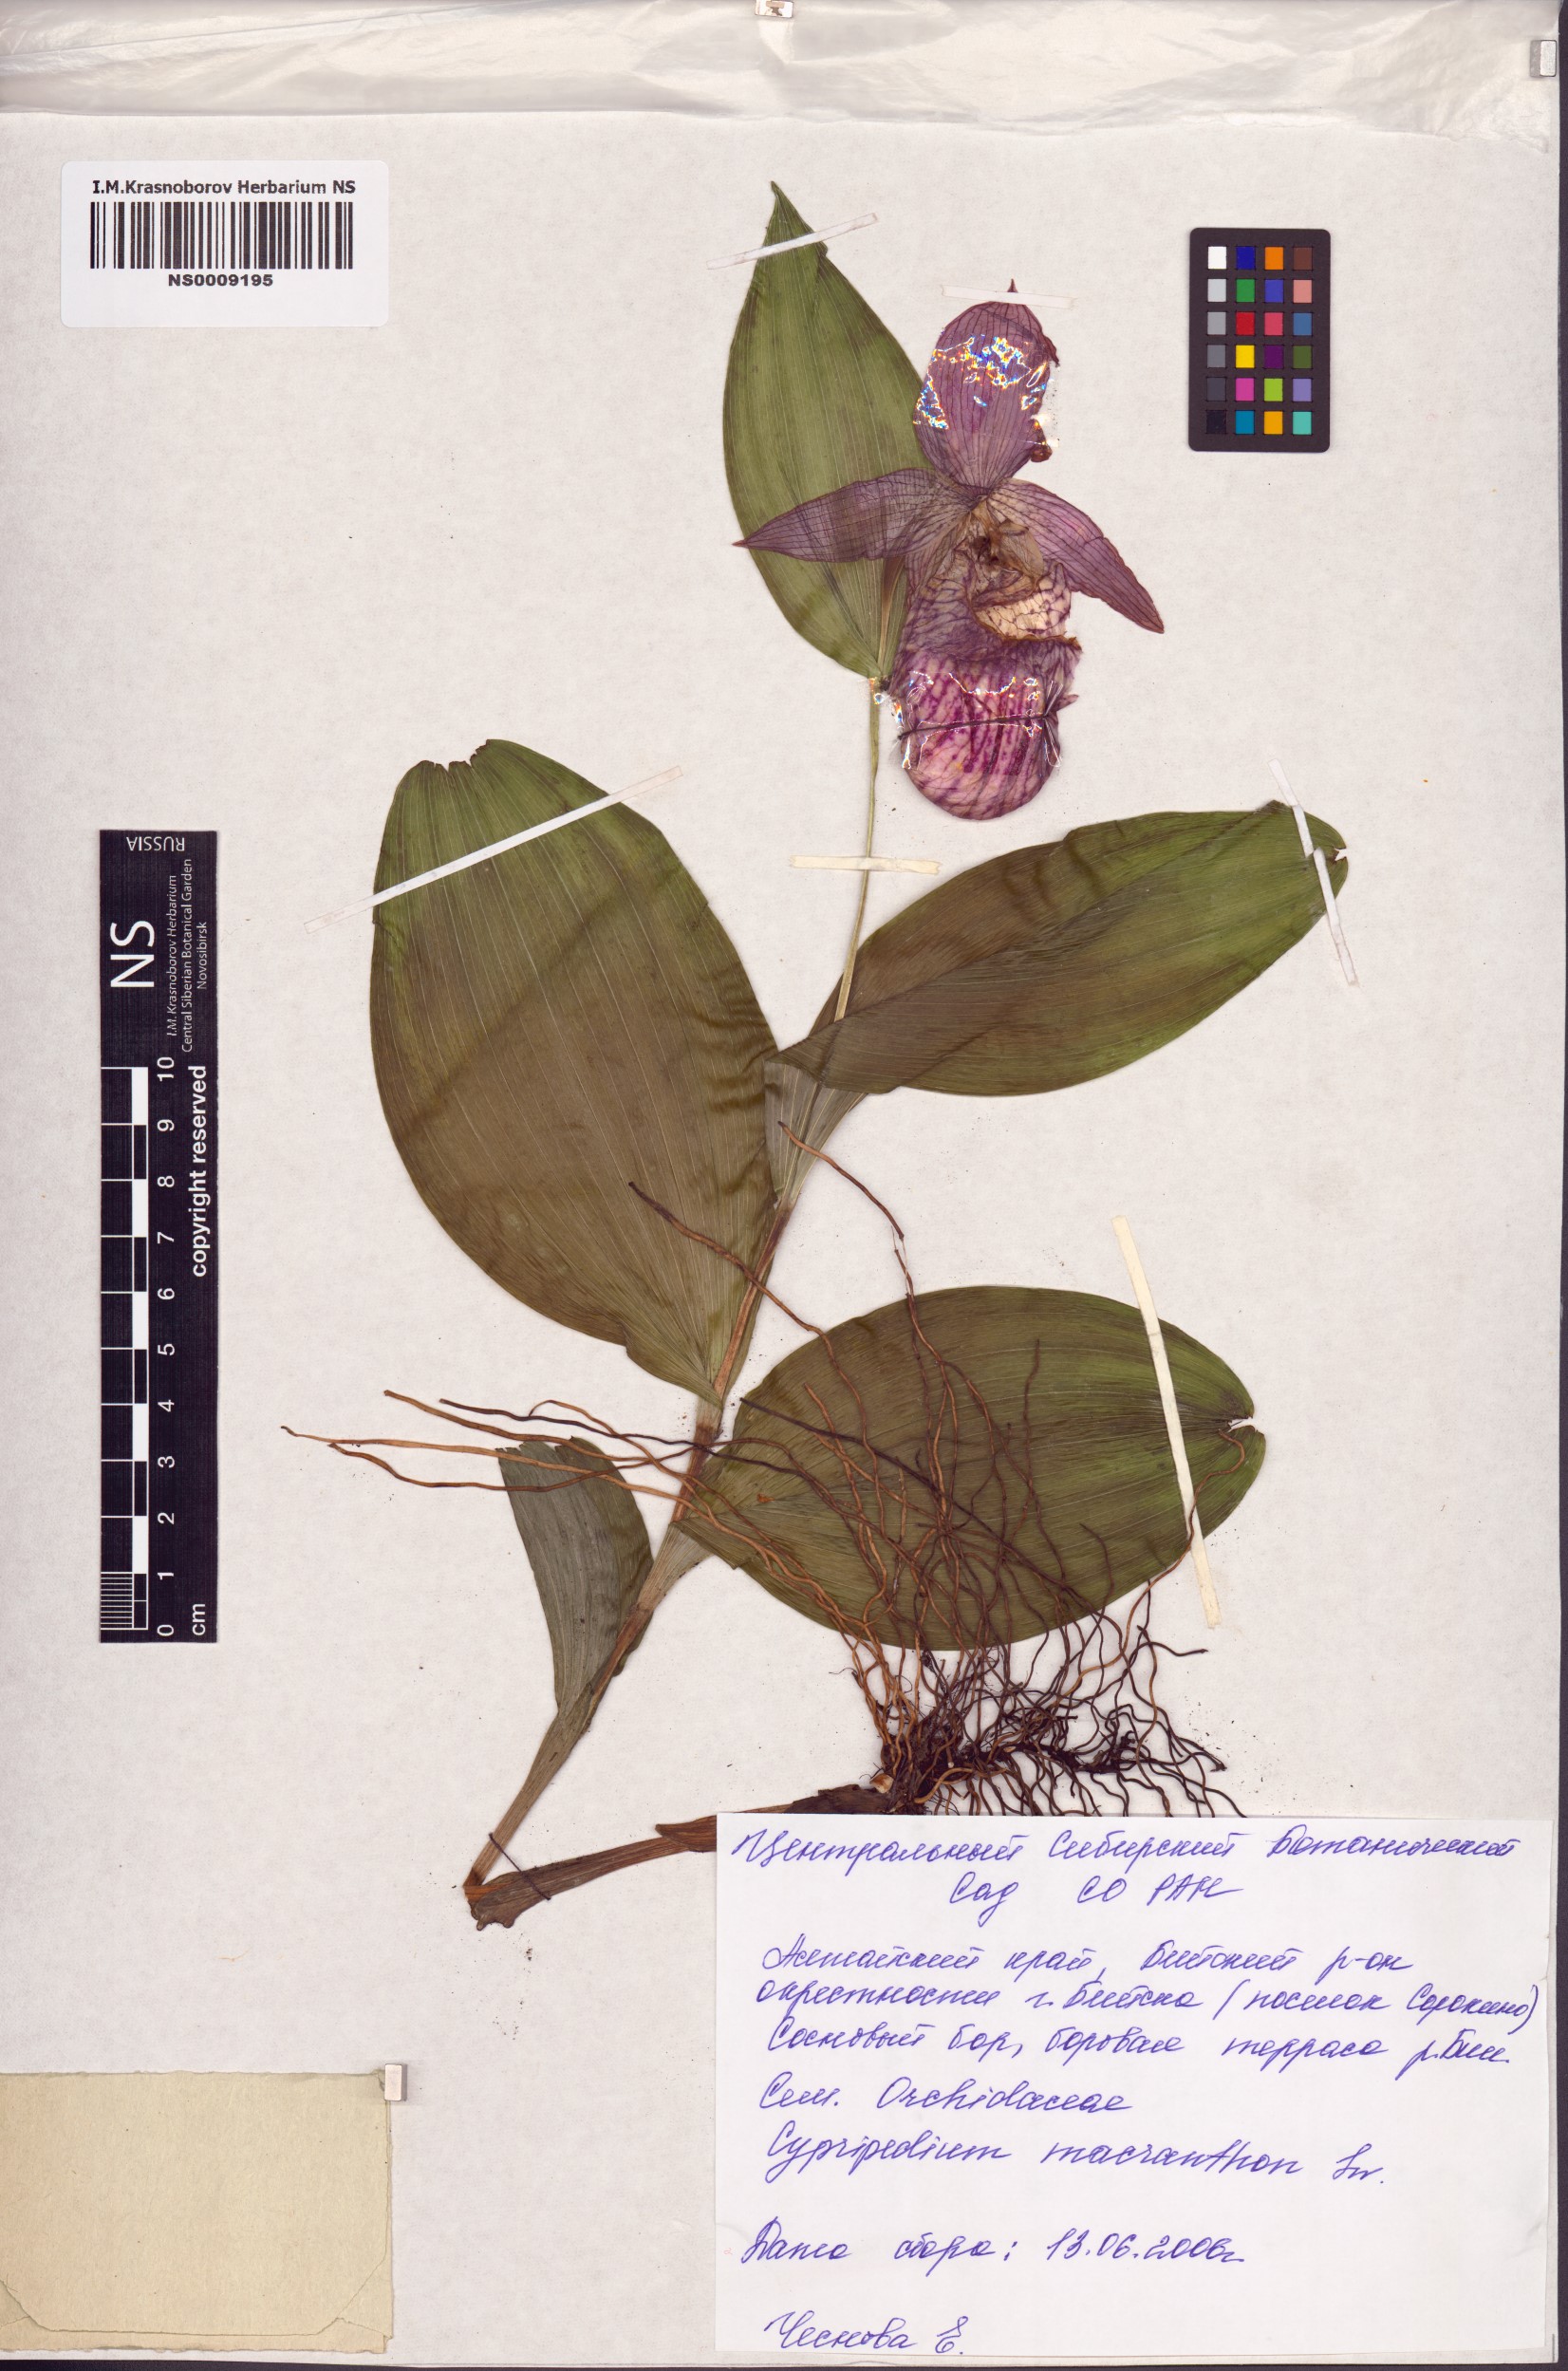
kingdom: Plantae
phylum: Tracheophyta
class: Liliopsida
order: Asparagales
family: Orchidaceae
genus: Cypripedium
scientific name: Cypripedium macranthos
